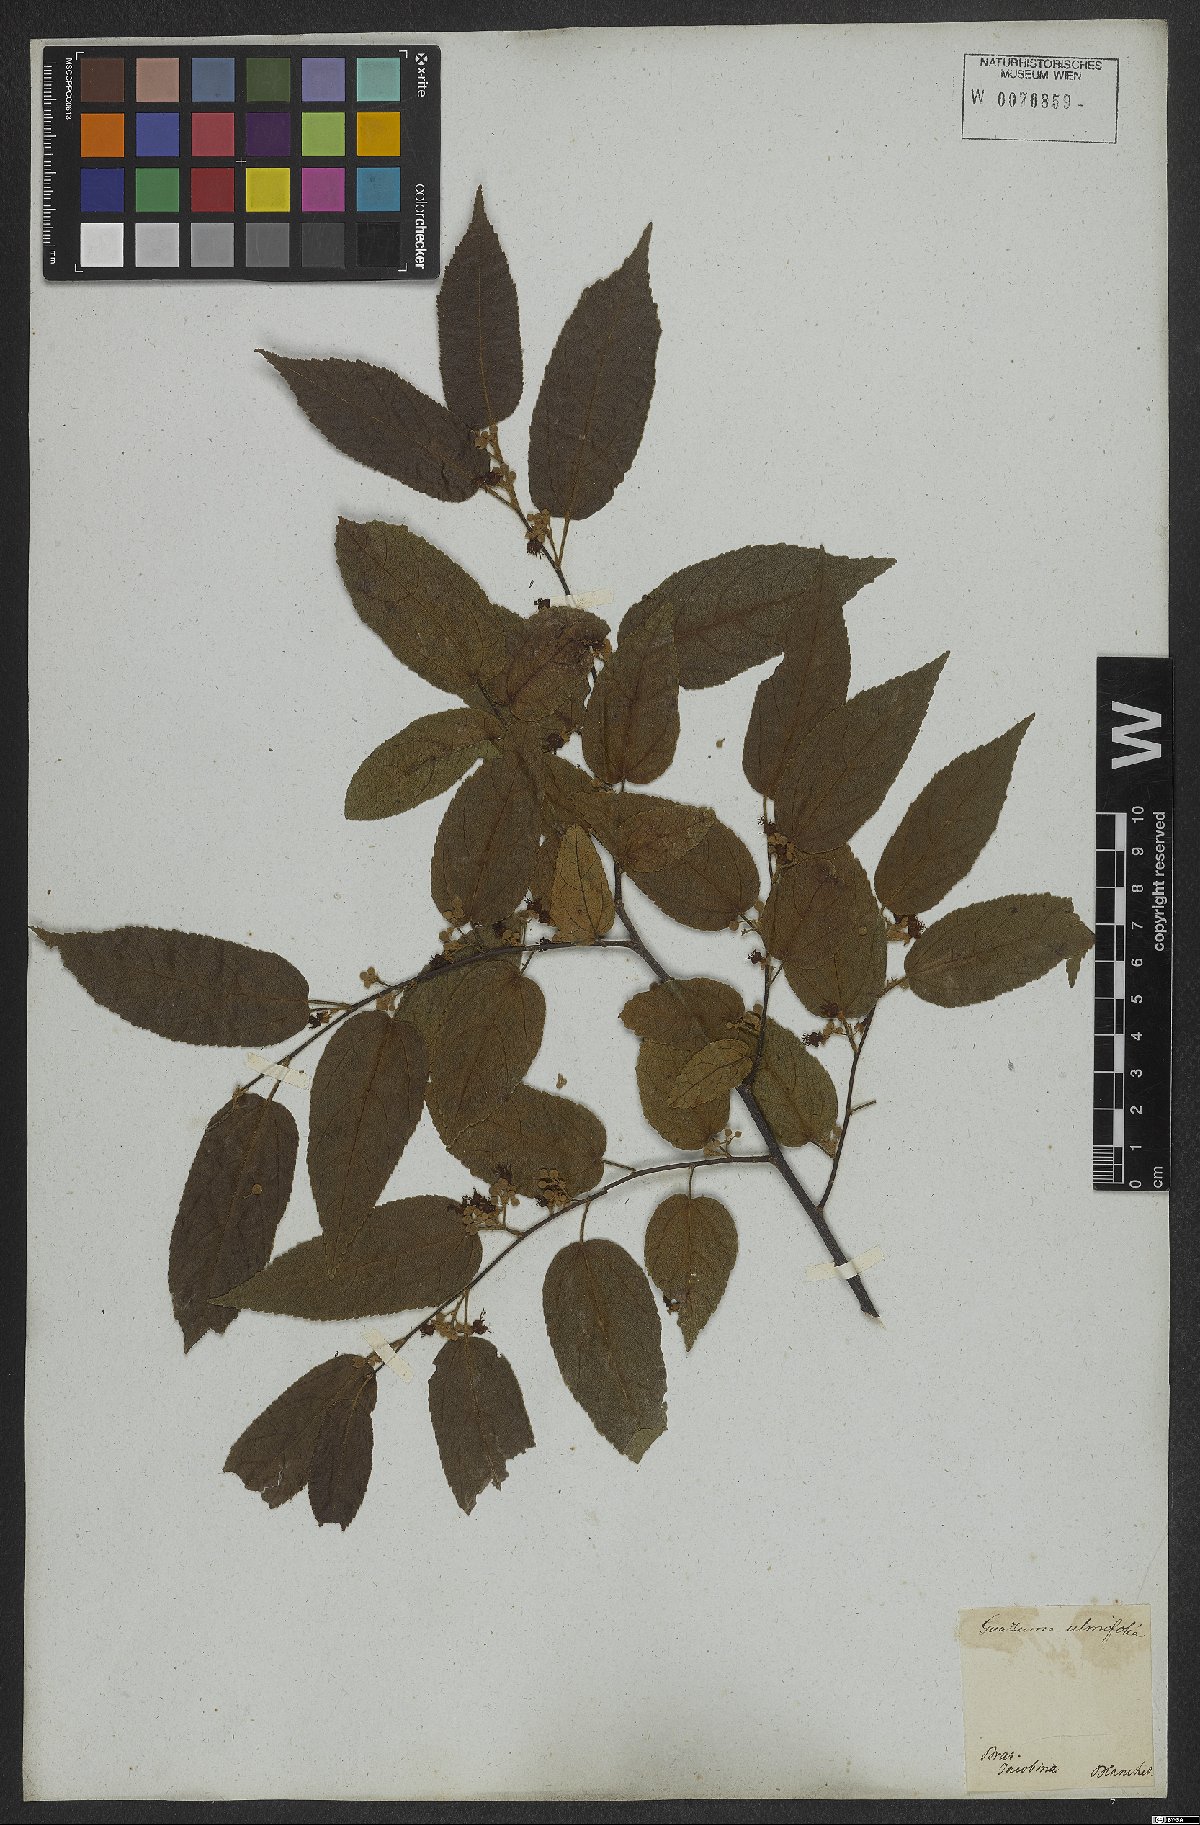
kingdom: Plantae
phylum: Tracheophyta
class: Magnoliopsida
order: Malvales
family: Malvaceae
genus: Guazuma
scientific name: Guazuma ulmifolia
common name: Bastard-cedar
